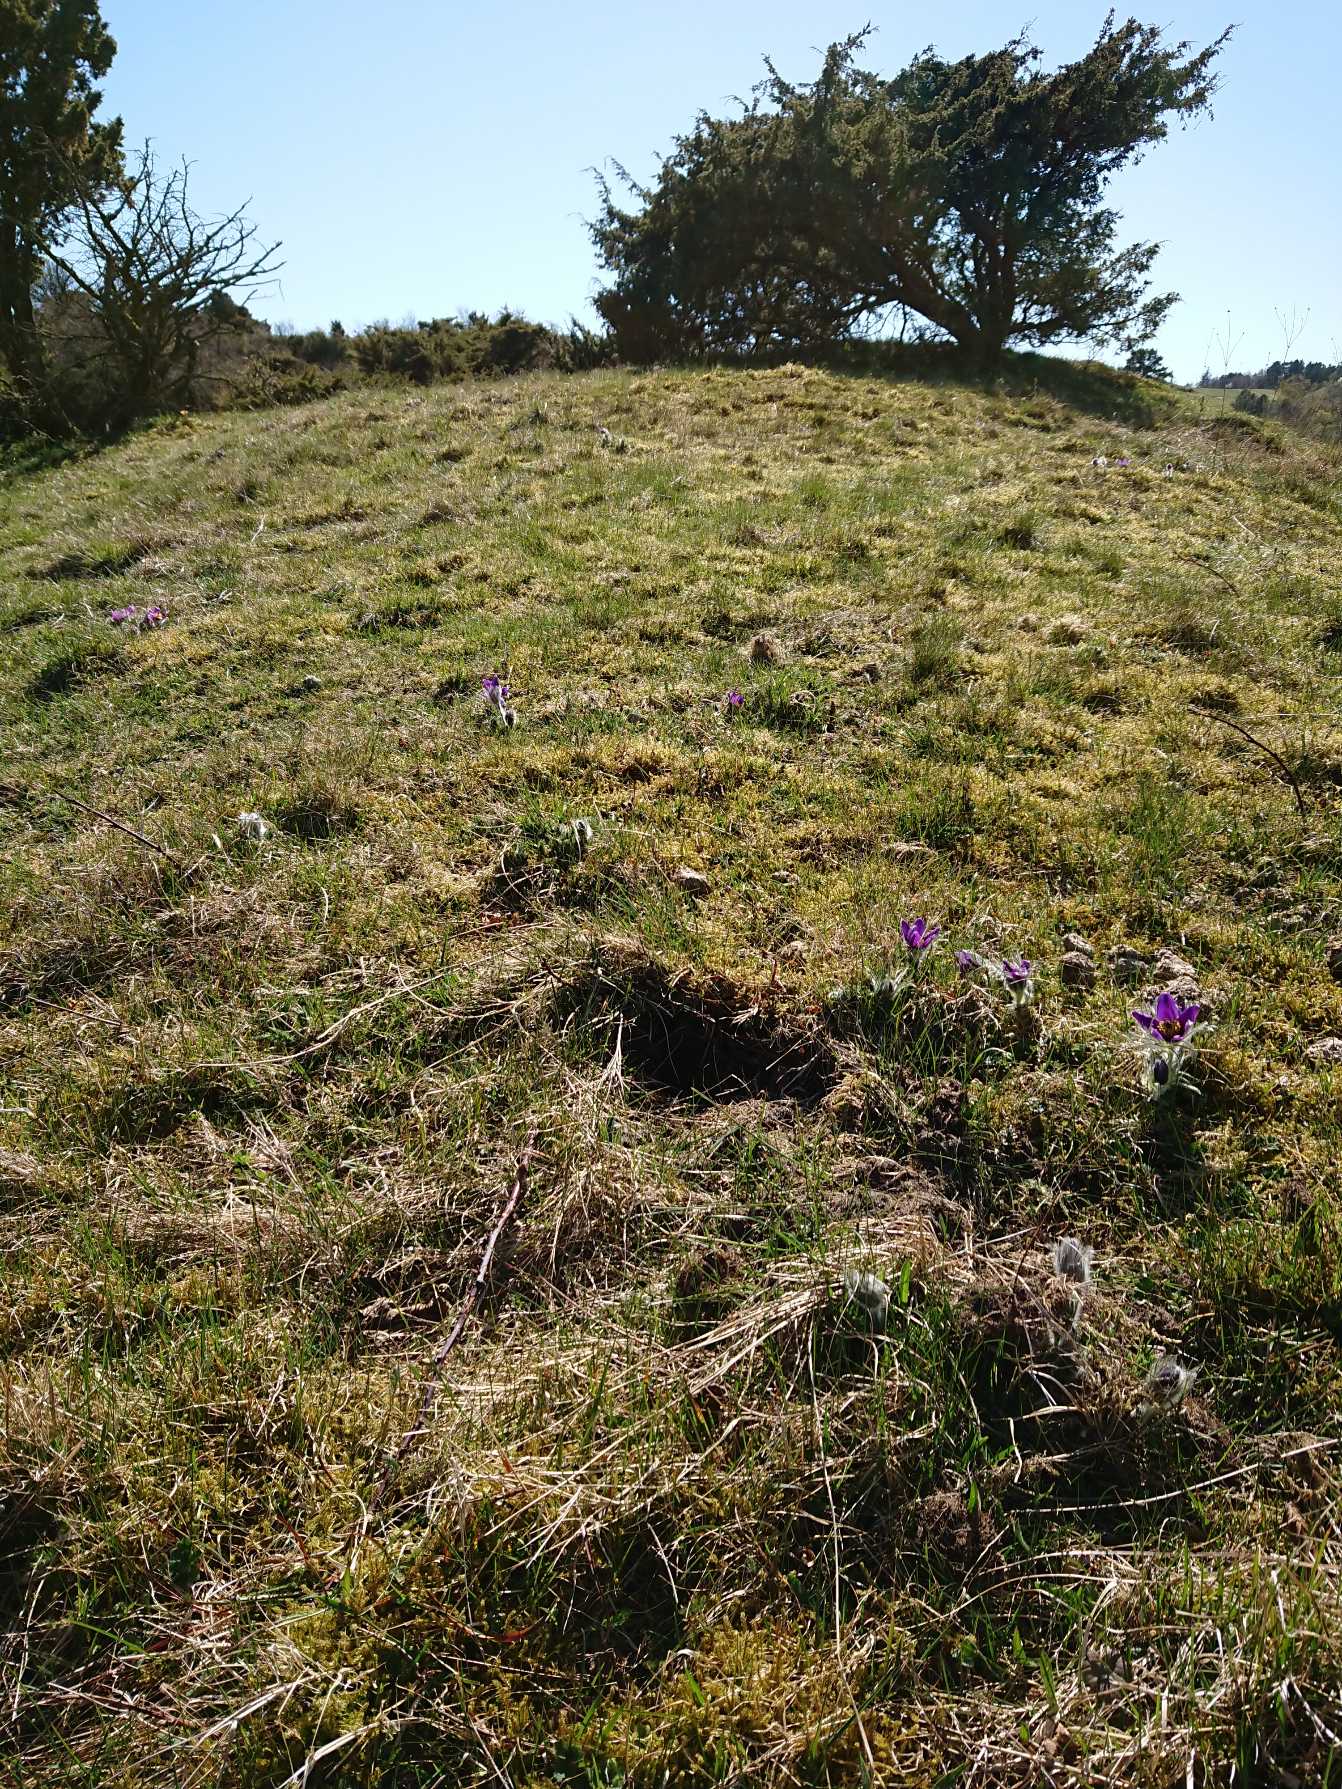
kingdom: Plantae
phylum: Tracheophyta
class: Magnoliopsida
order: Ranunculales
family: Ranunculaceae
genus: Pulsatilla
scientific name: Pulsatilla vulgaris
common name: Opret kobjælde
